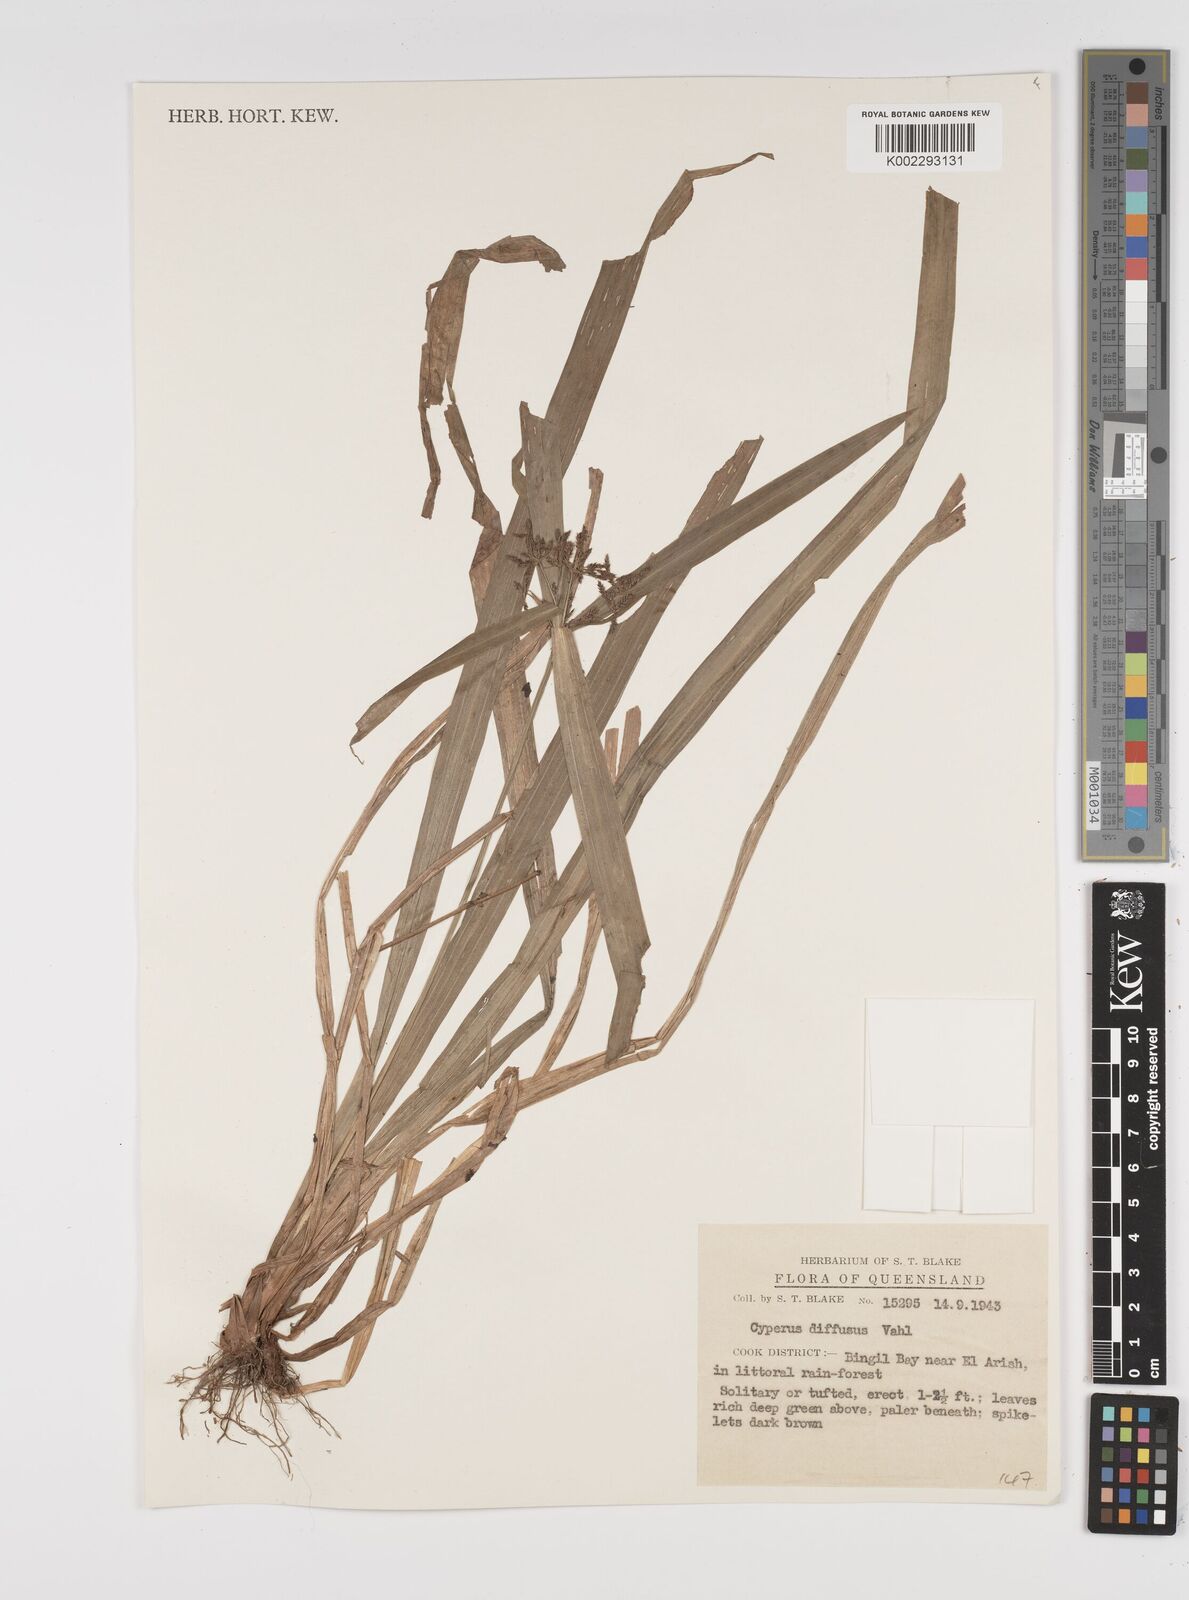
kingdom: Plantae
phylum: Tracheophyta
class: Liliopsida
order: Poales
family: Cyperaceae
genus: Cyperus
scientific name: Cyperus laxus
